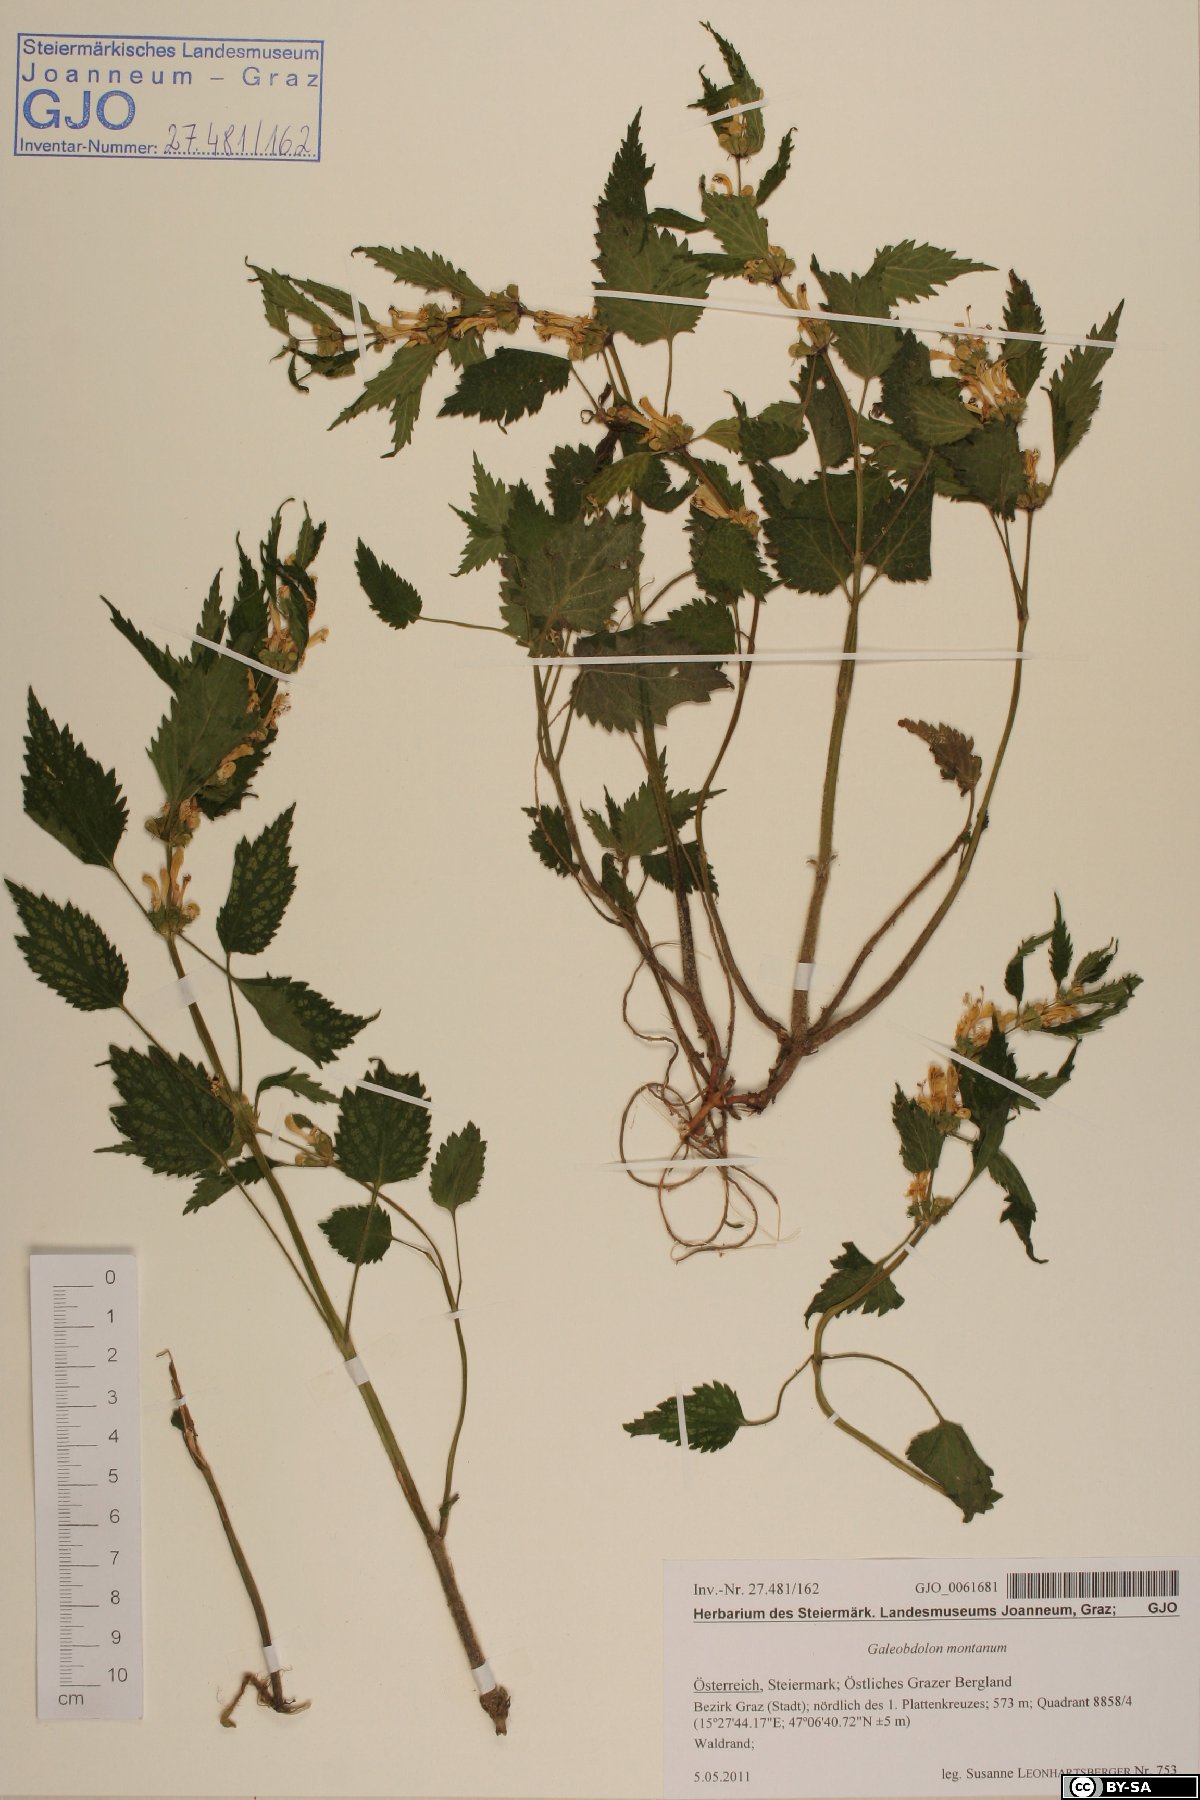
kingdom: Plantae
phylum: Tracheophyta
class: Magnoliopsida
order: Lamiales
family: Lamiaceae
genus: Lamium
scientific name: Lamium galeobdolon
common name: Yellow archangel
